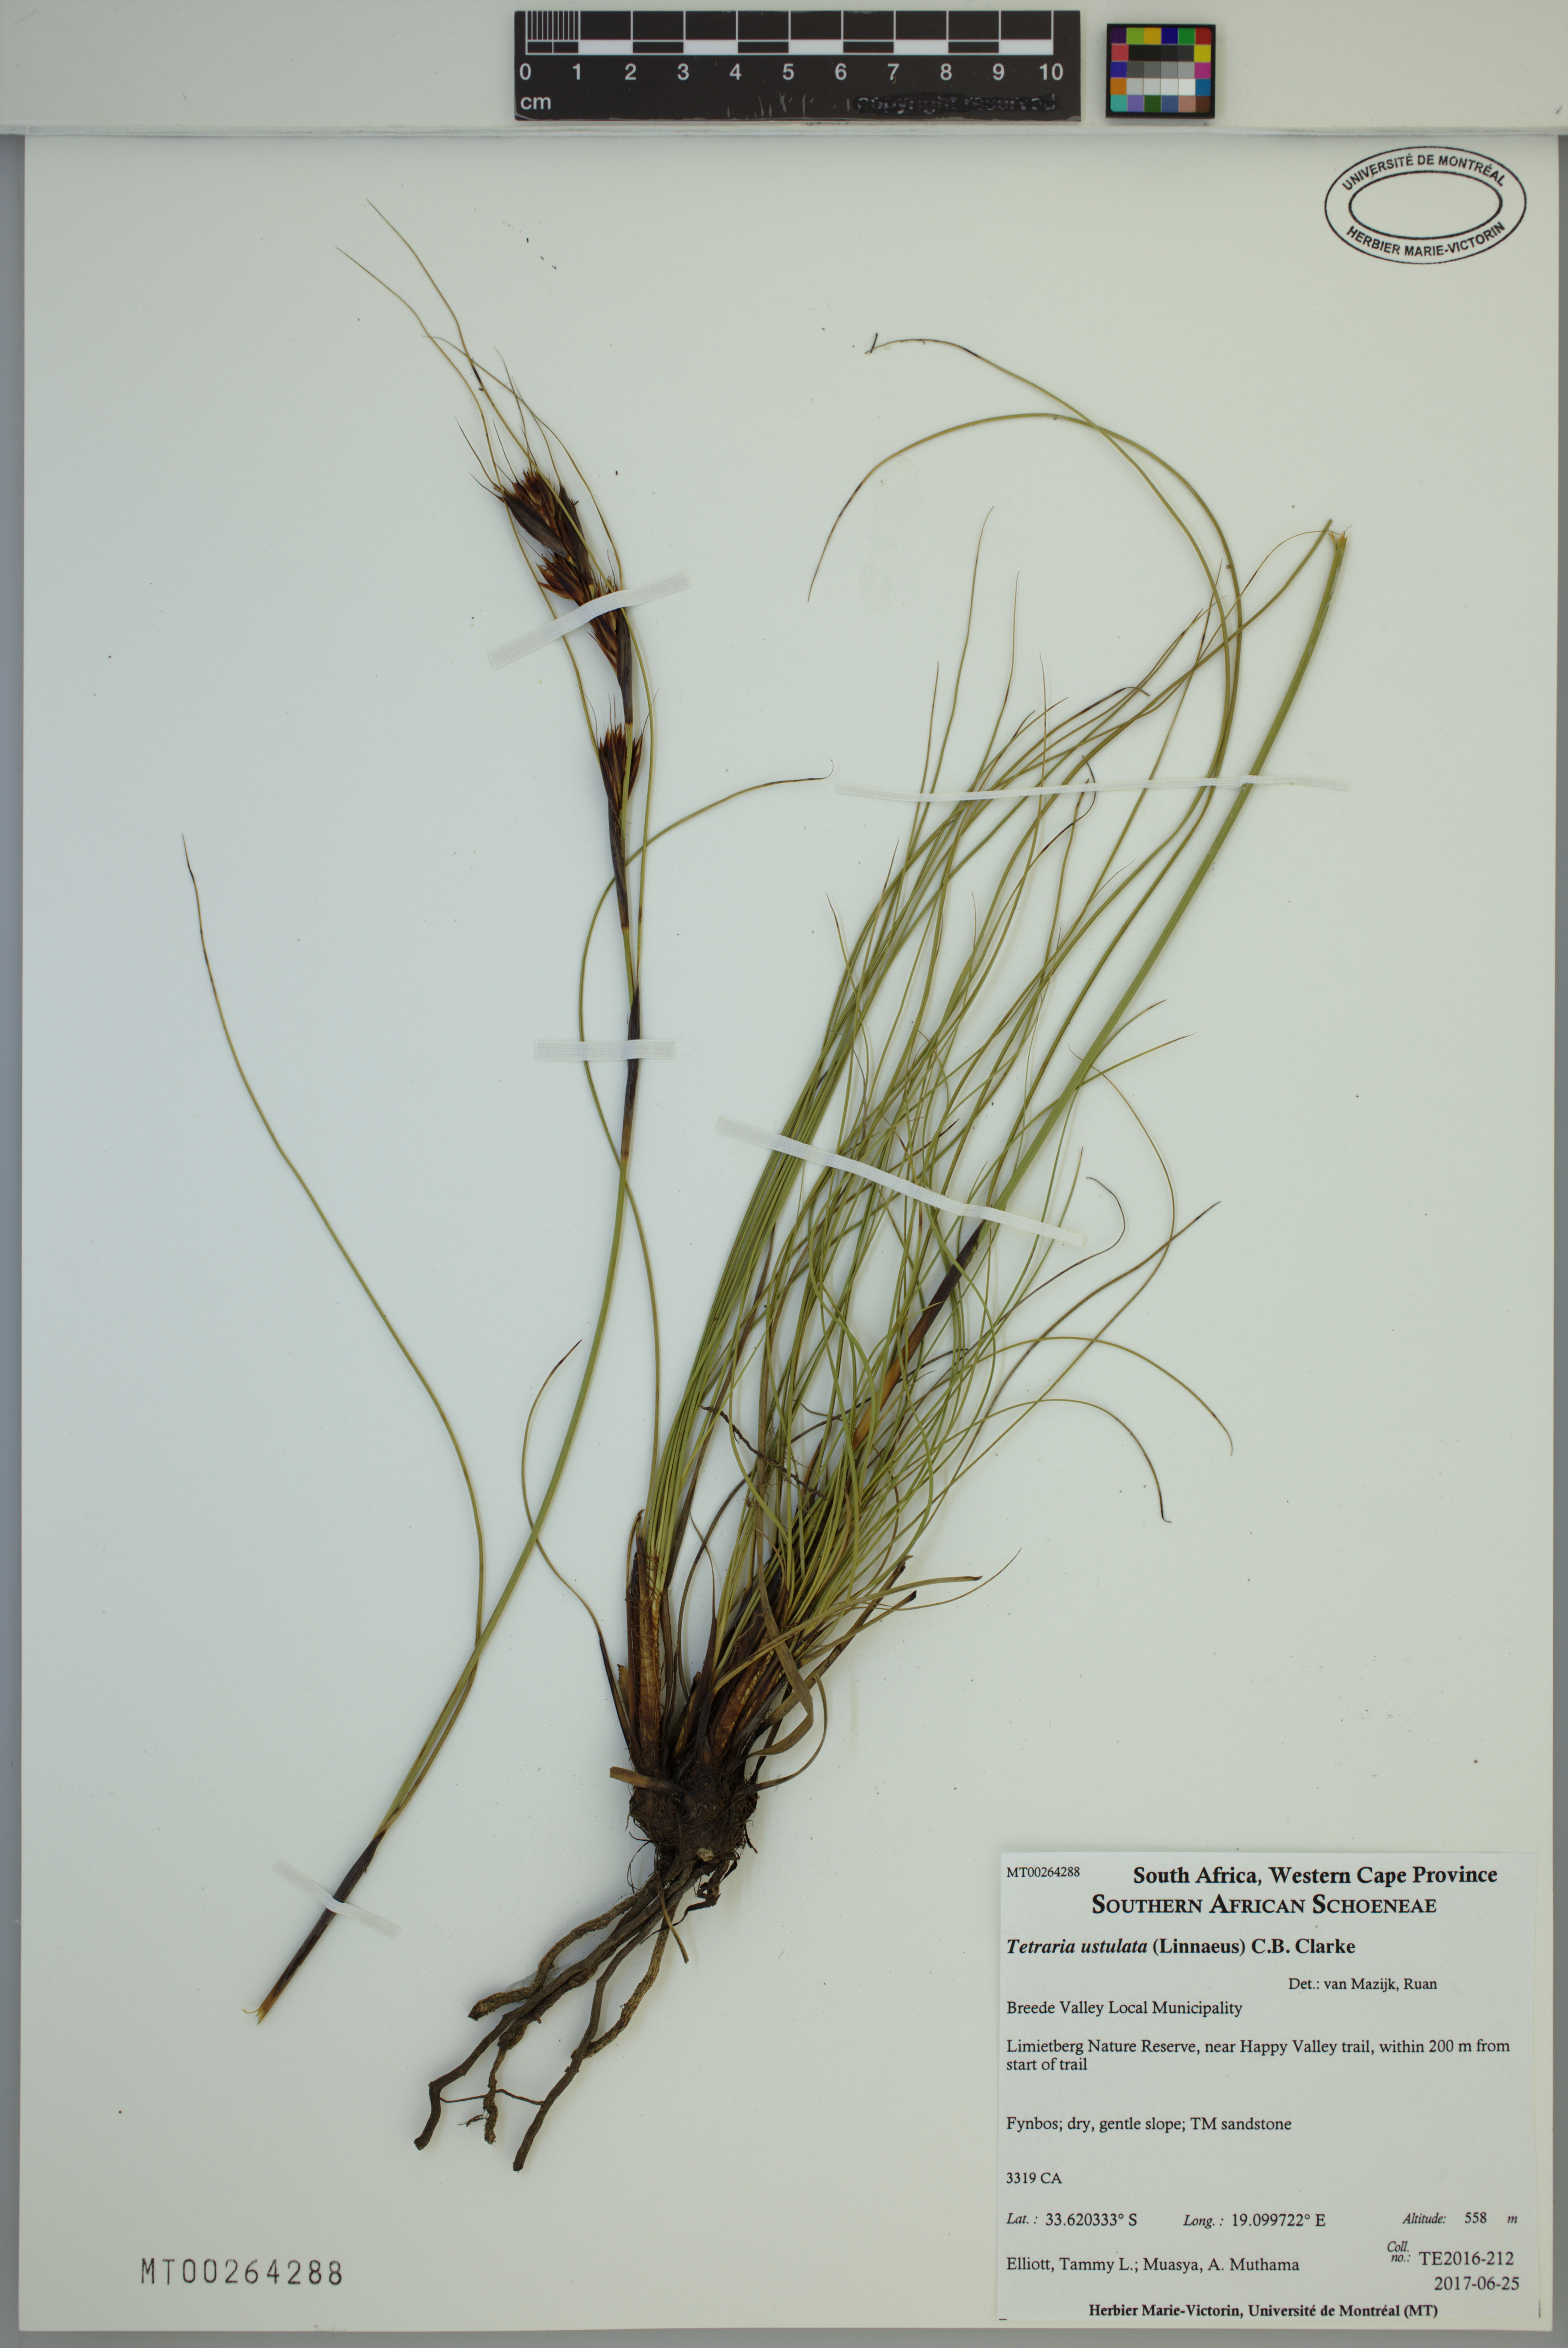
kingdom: Plantae
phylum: Tracheophyta
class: Liliopsida
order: Poales
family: Cyperaceae
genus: Tetraria
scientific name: Tetraria ustulata
